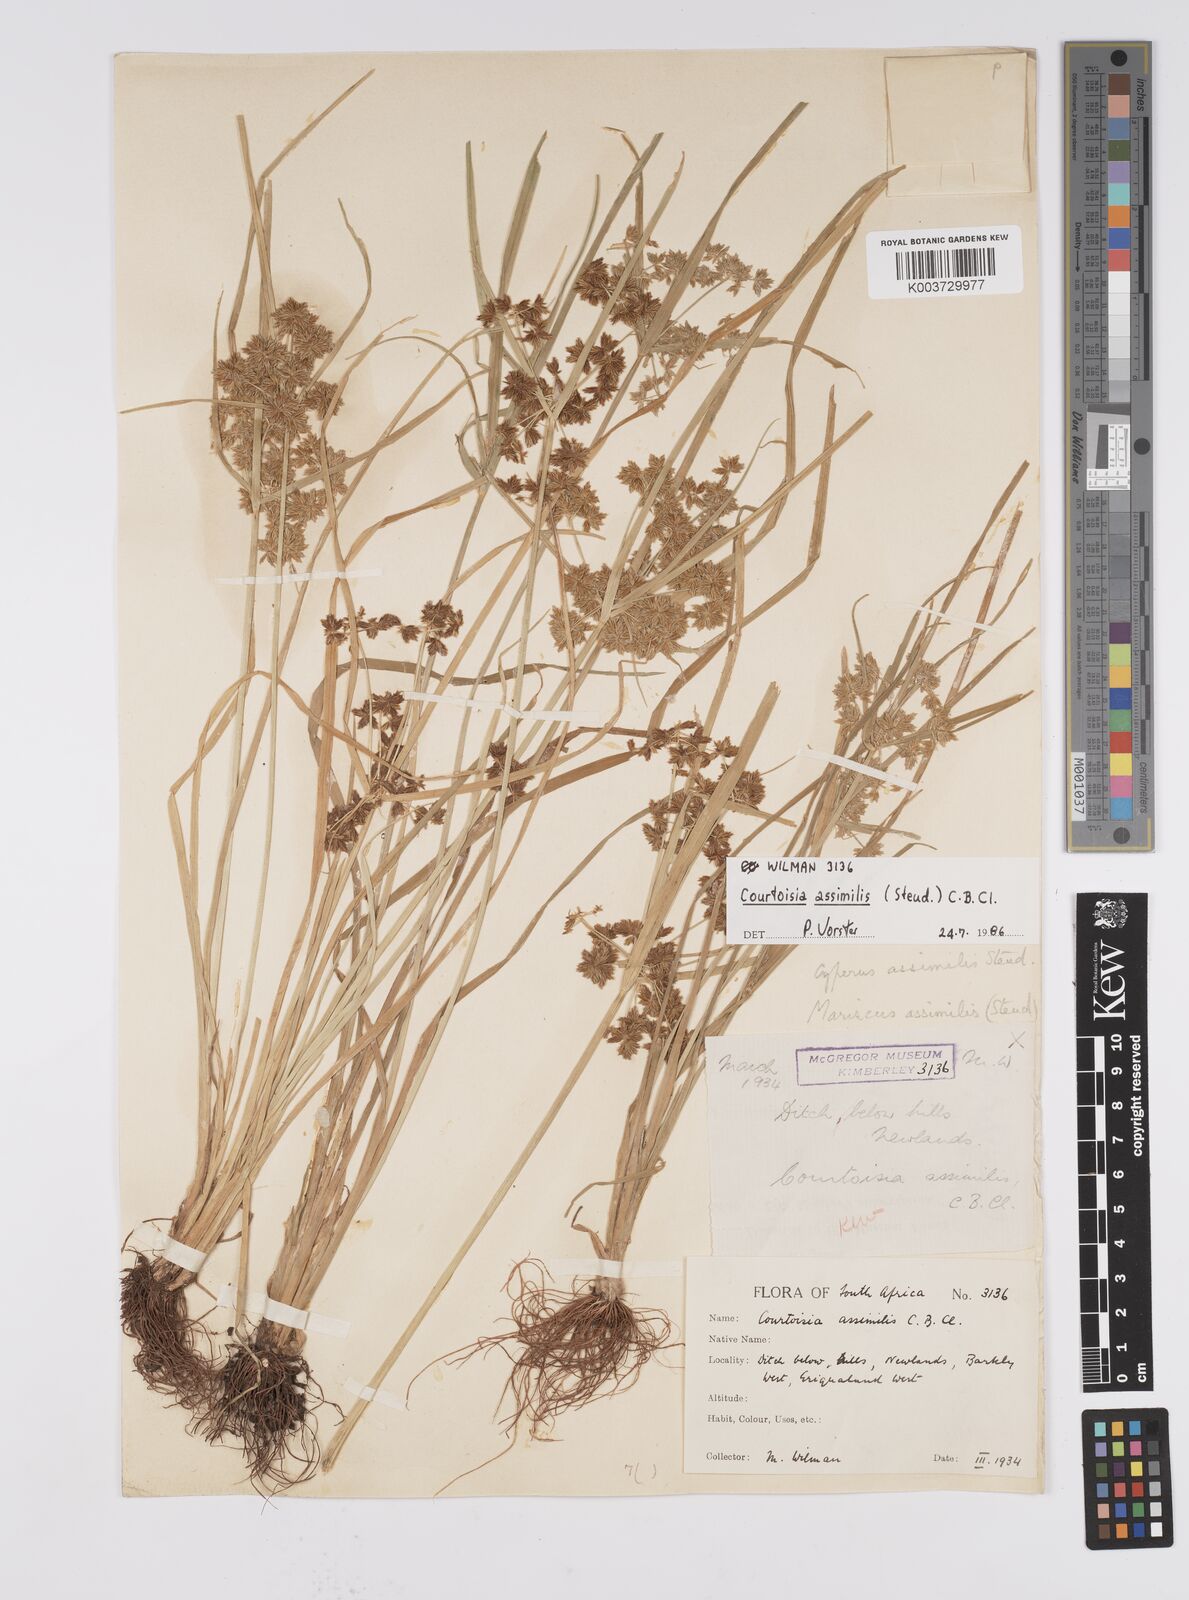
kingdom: Plantae
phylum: Tracheophyta
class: Liliopsida
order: Poales
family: Cyperaceae
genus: Cyperus
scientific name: Cyperus assimilis
